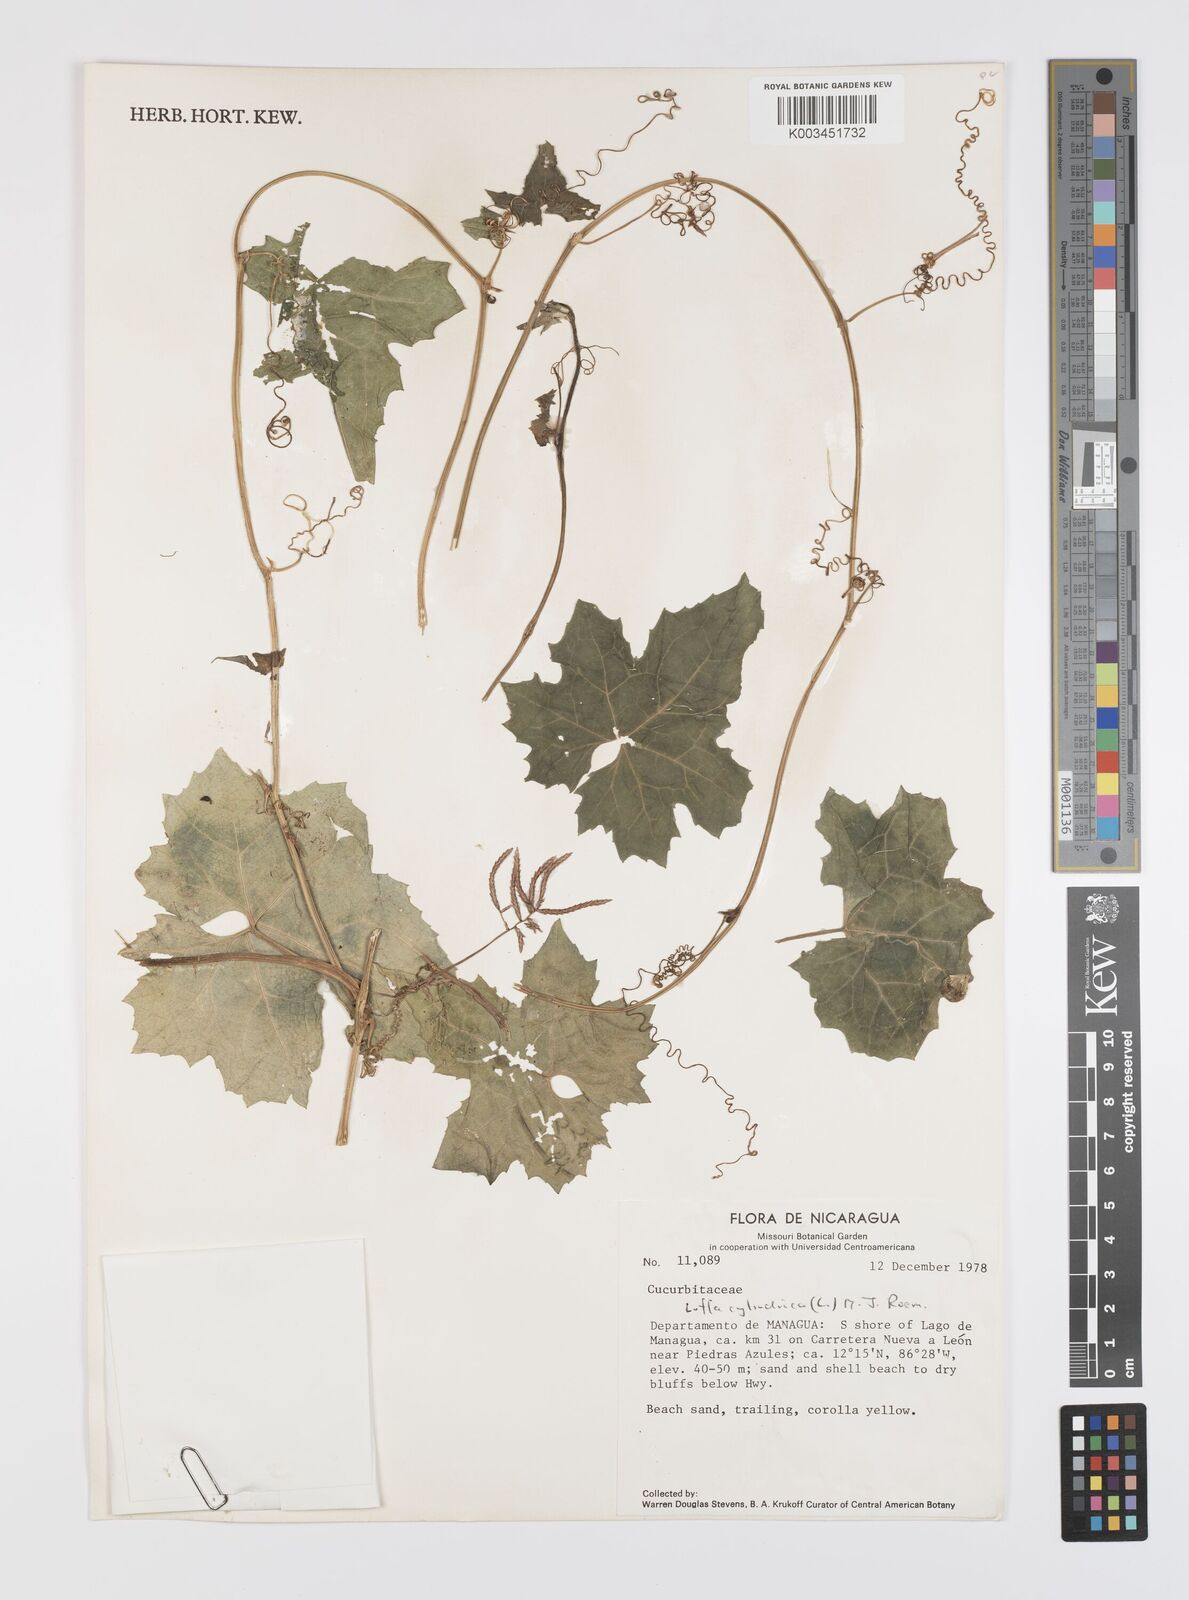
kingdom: Plantae
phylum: Tracheophyta
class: Magnoliopsida
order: Cucurbitales
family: Cucurbitaceae
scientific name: Cucurbitaceae
